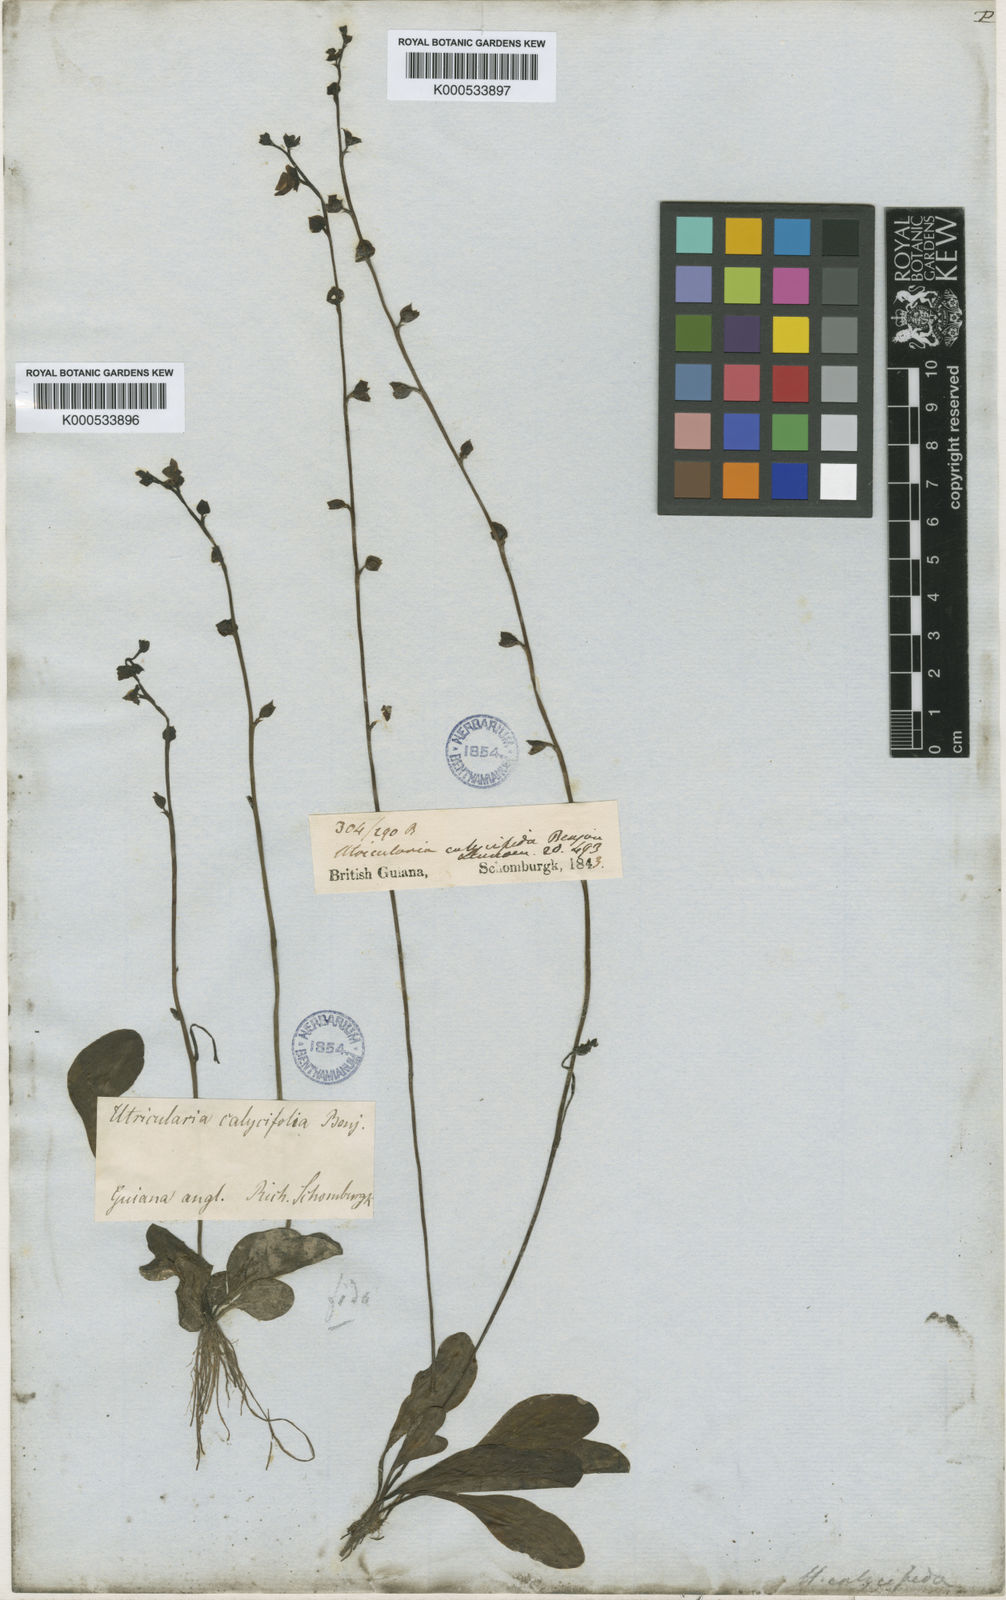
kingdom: Plantae
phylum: Tracheophyta
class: Magnoliopsida
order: Lamiales
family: Lentibulariaceae
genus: Utricularia
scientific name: Utricularia calycifida
